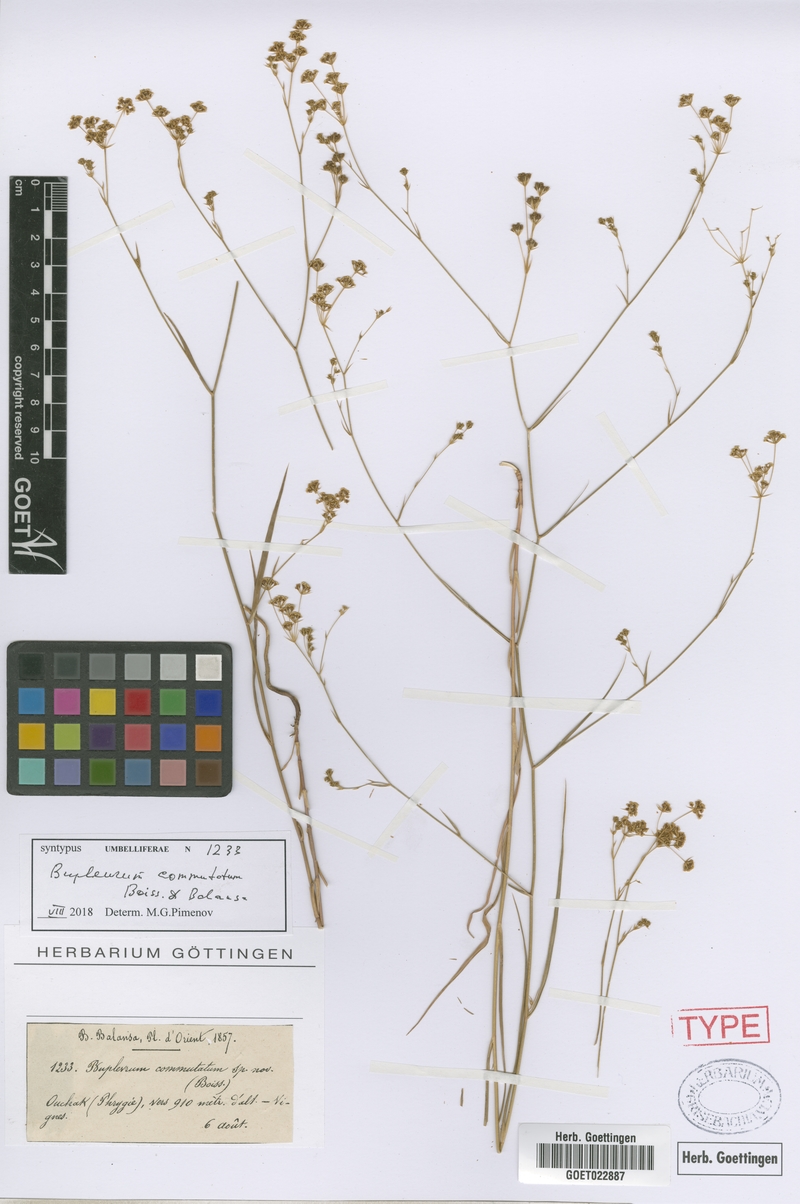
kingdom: Plantae
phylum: Tracheophyta
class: Magnoliopsida
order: Apiales
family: Apiaceae
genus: Bupleurum
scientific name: Bupleurum commutatum
